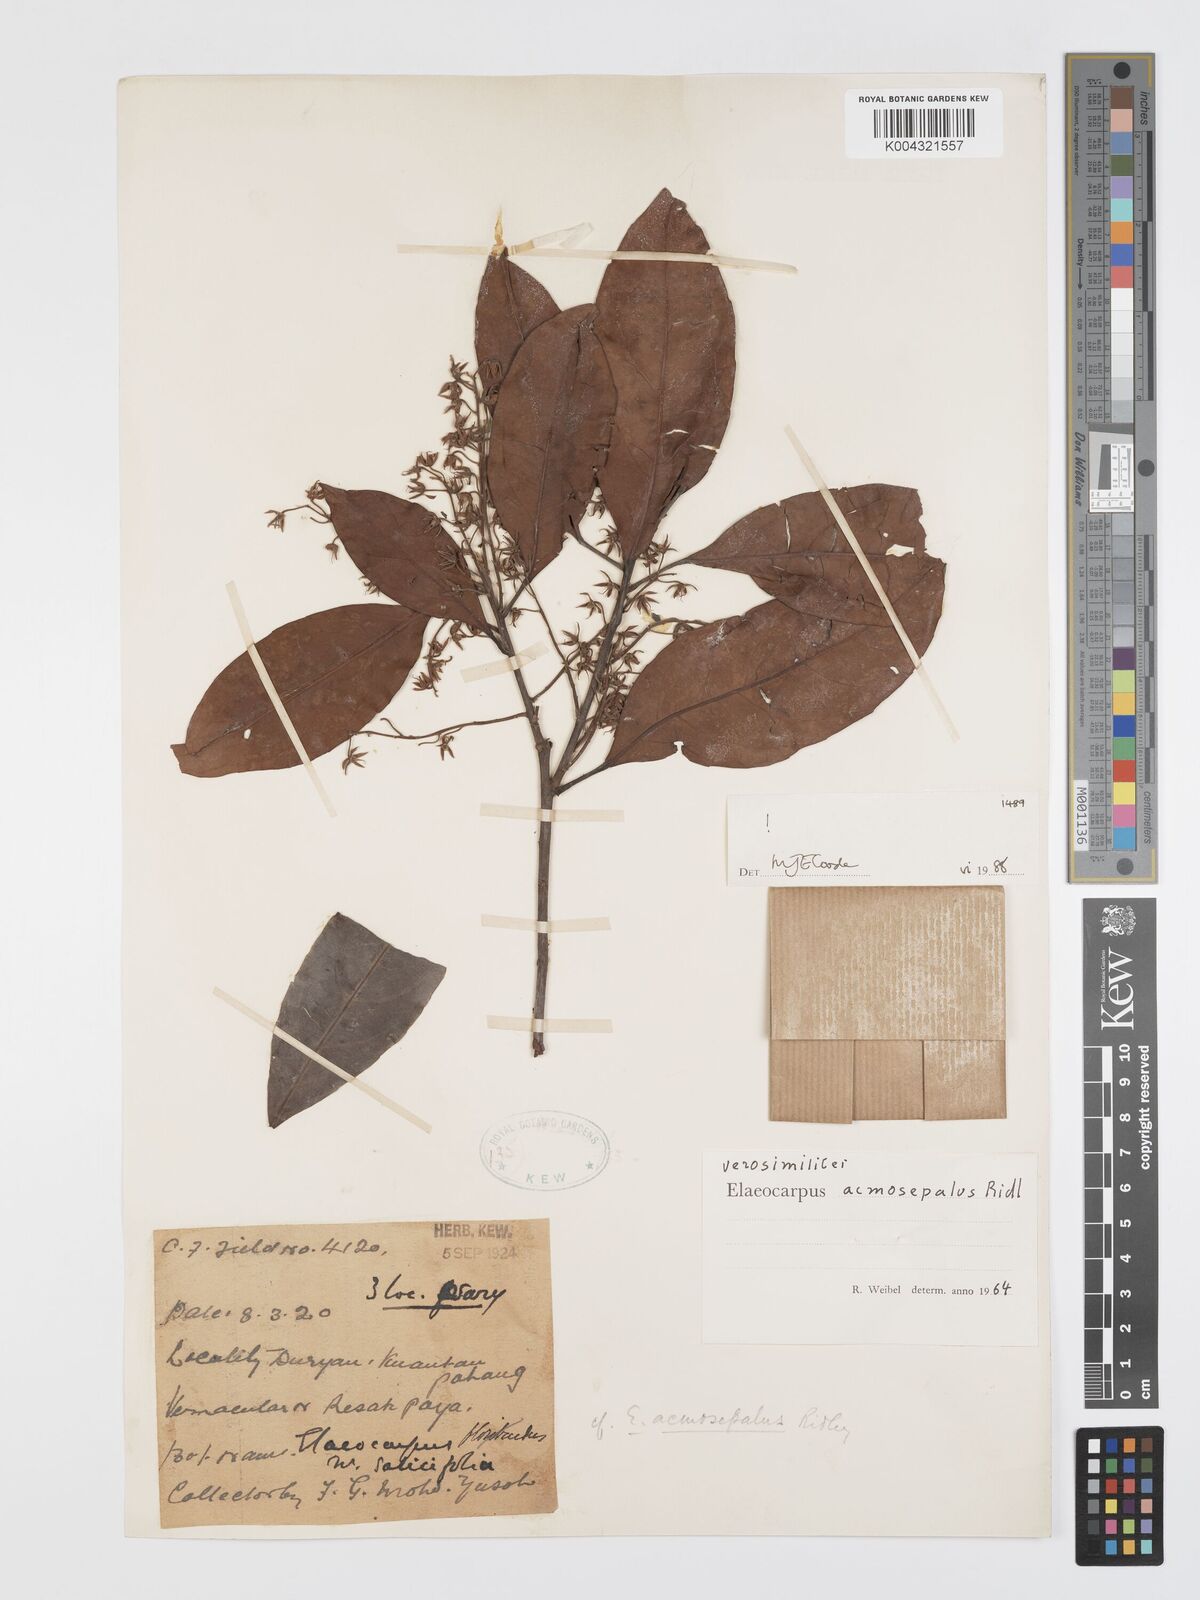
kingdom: Plantae
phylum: Tracheophyta
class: Magnoliopsida
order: Oxalidales
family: Elaeocarpaceae
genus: Elaeocarpus
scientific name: Elaeocarpus acmosepalus
